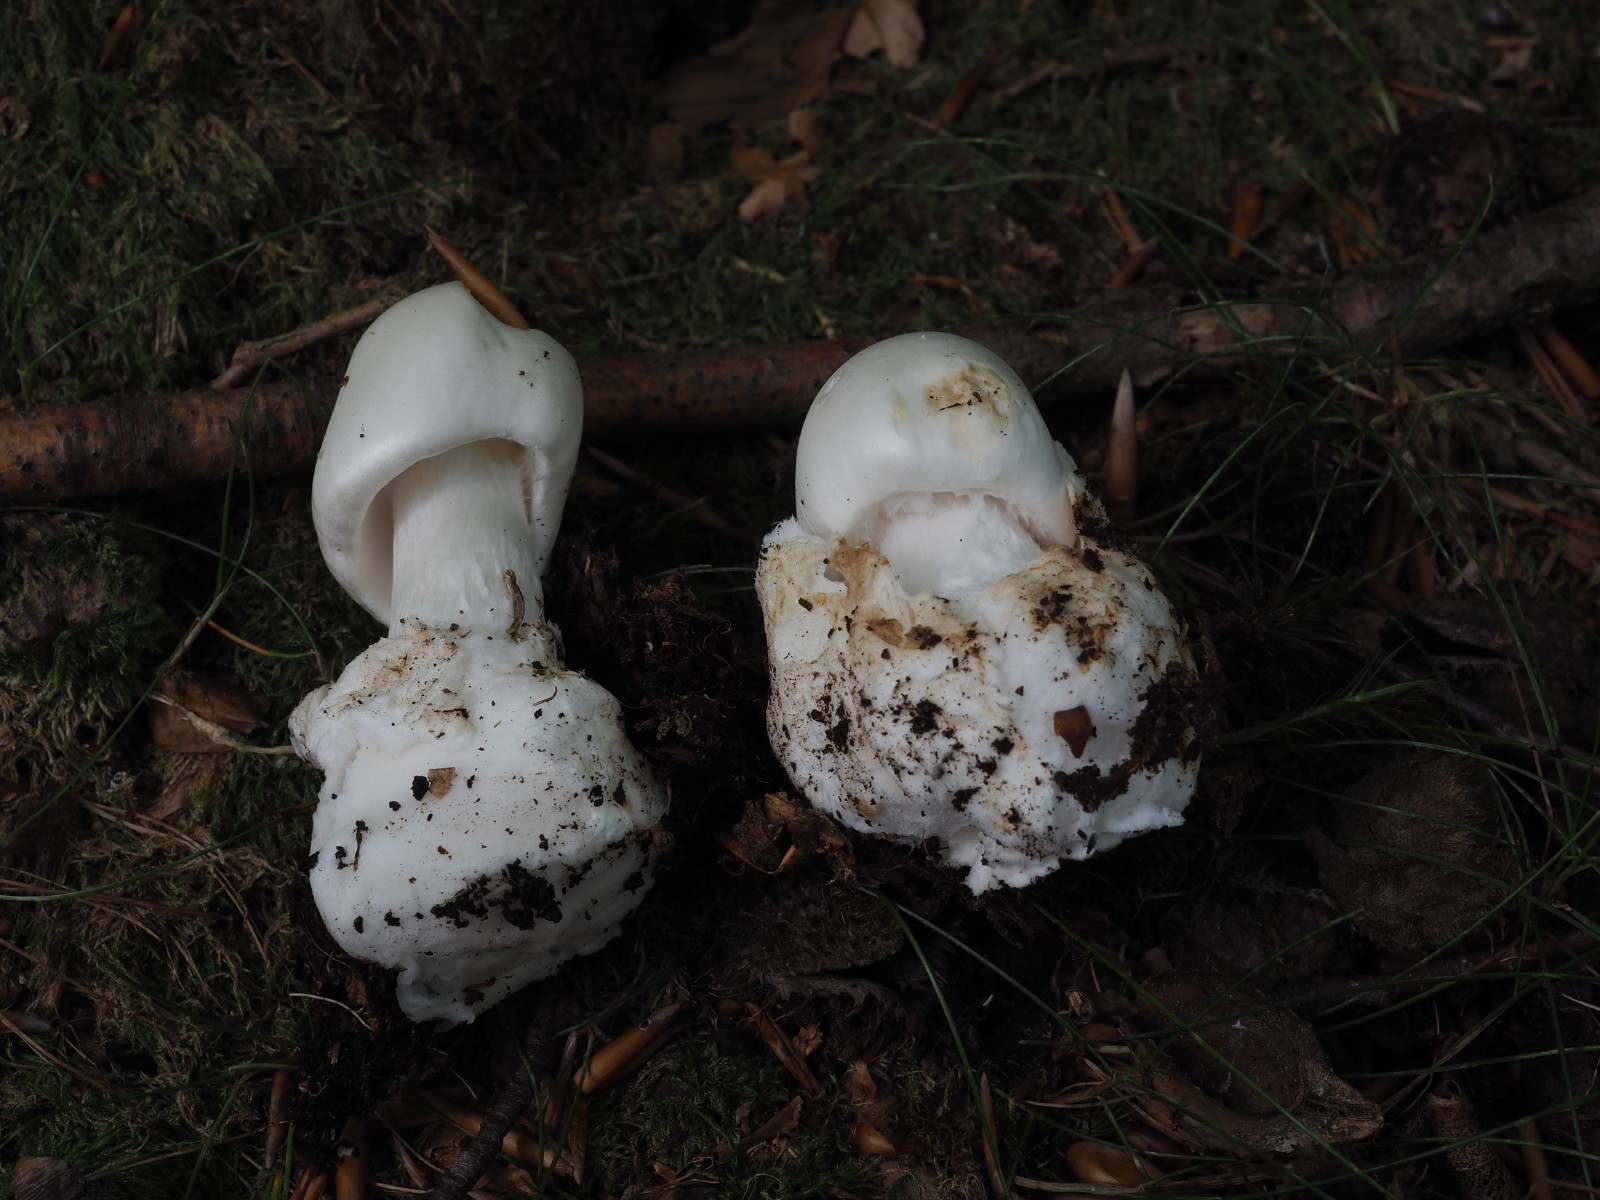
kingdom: Fungi
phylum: Basidiomycota
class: Agaricomycetes
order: Agaricales
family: Amanitaceae
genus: Amanita
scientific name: Amanita virosa
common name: snehvid fluesvamp
